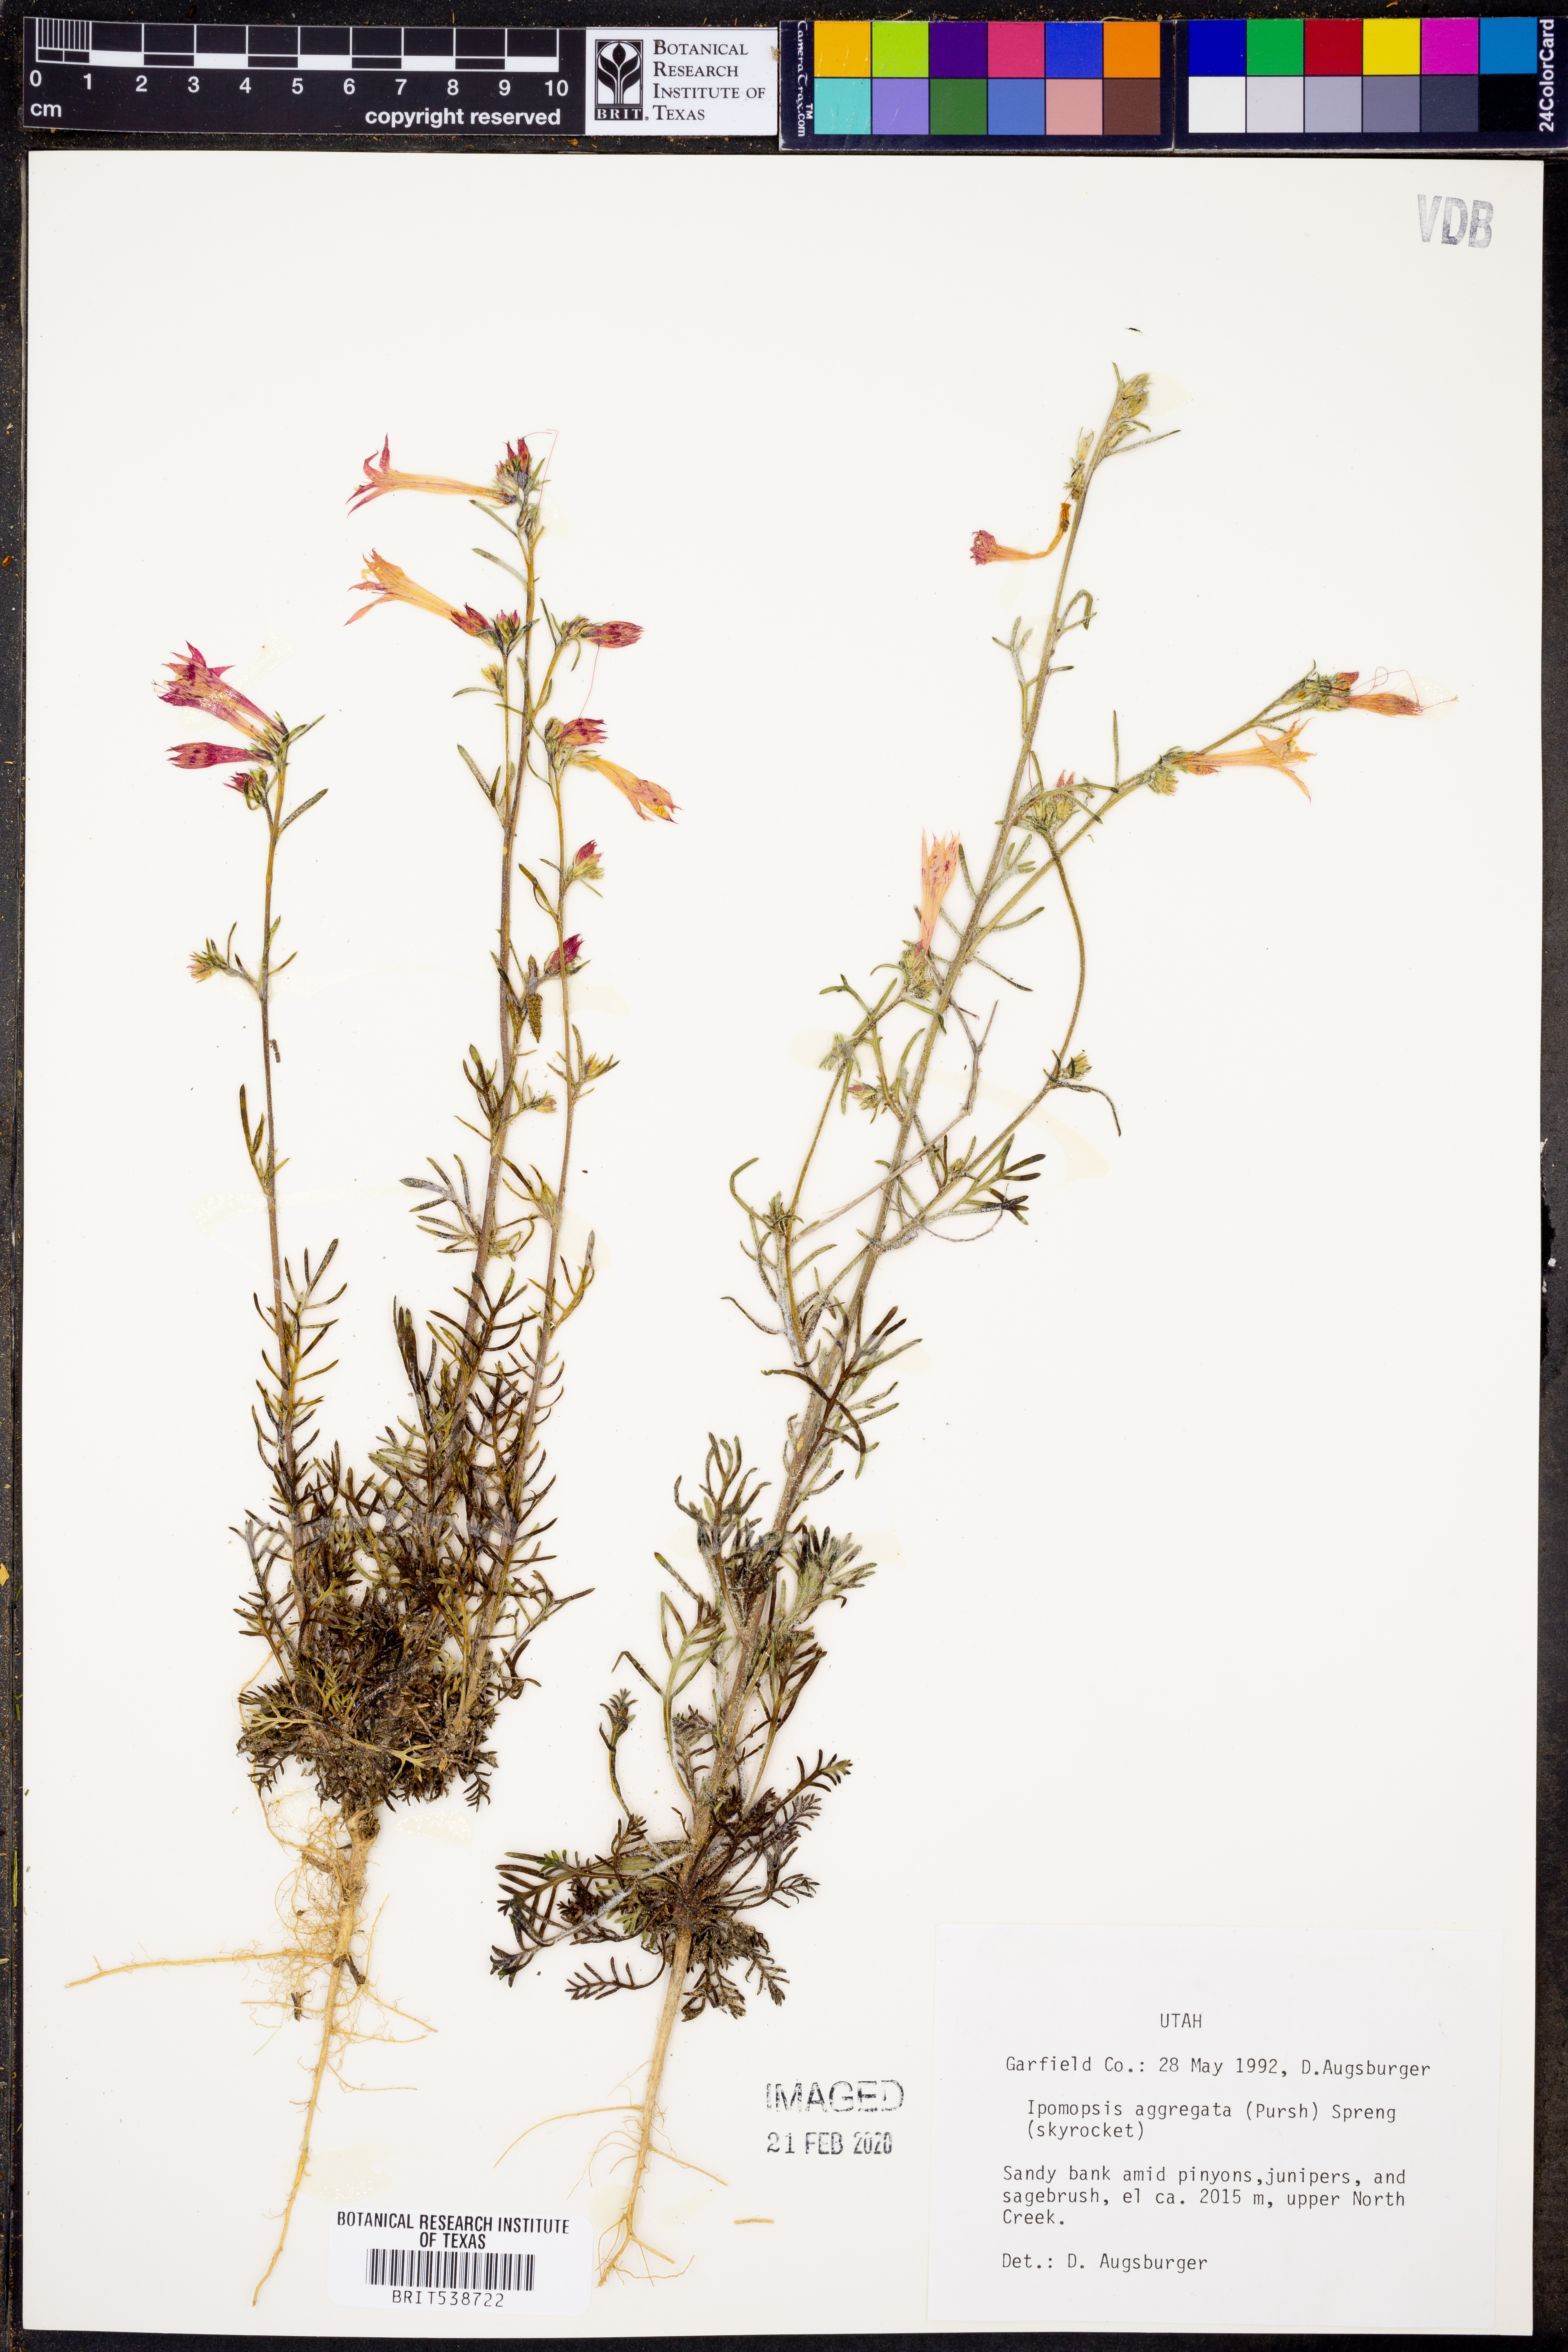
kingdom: Plantae
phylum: Tracheophyta
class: Magnoliopsida
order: Ericales
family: Polemoniaceae
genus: Ipomopsis
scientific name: Ipomopsis aggregata
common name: Scarlet gilia
